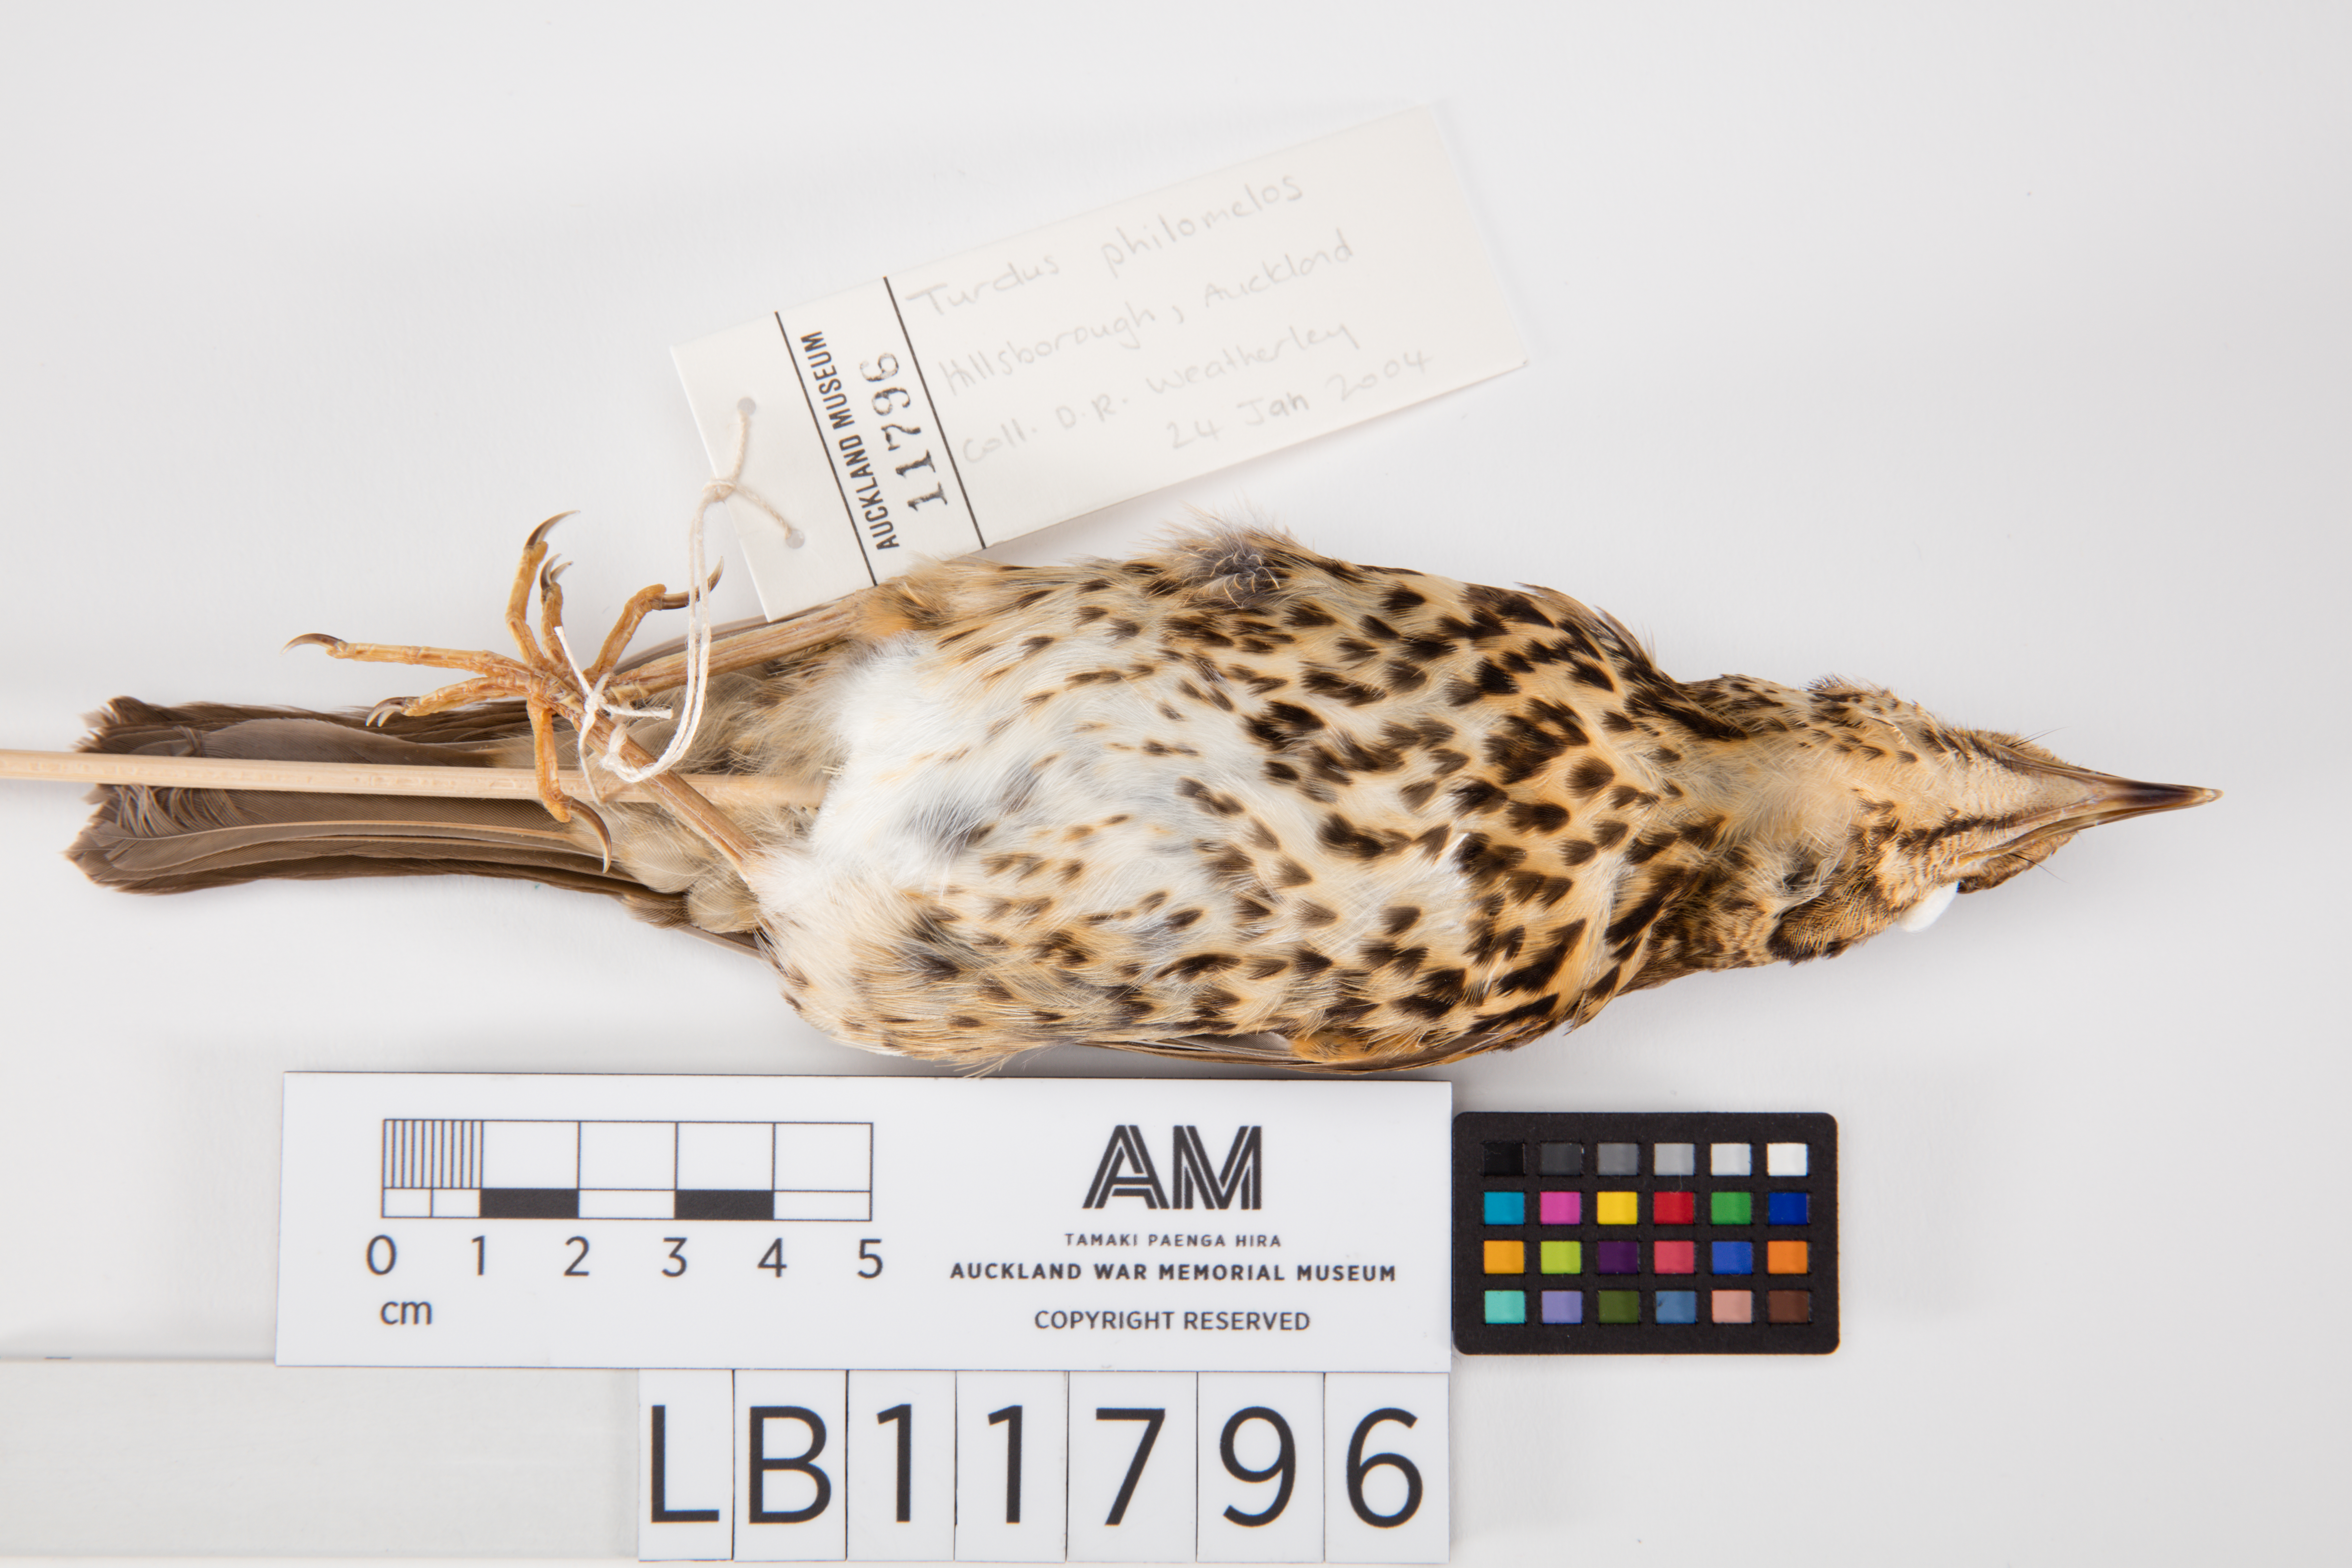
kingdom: Animalia
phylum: Chordata
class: Aves
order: Passeriformes
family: Turdidae
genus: Turdus
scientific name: Turdus philomelos
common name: Song thrush
